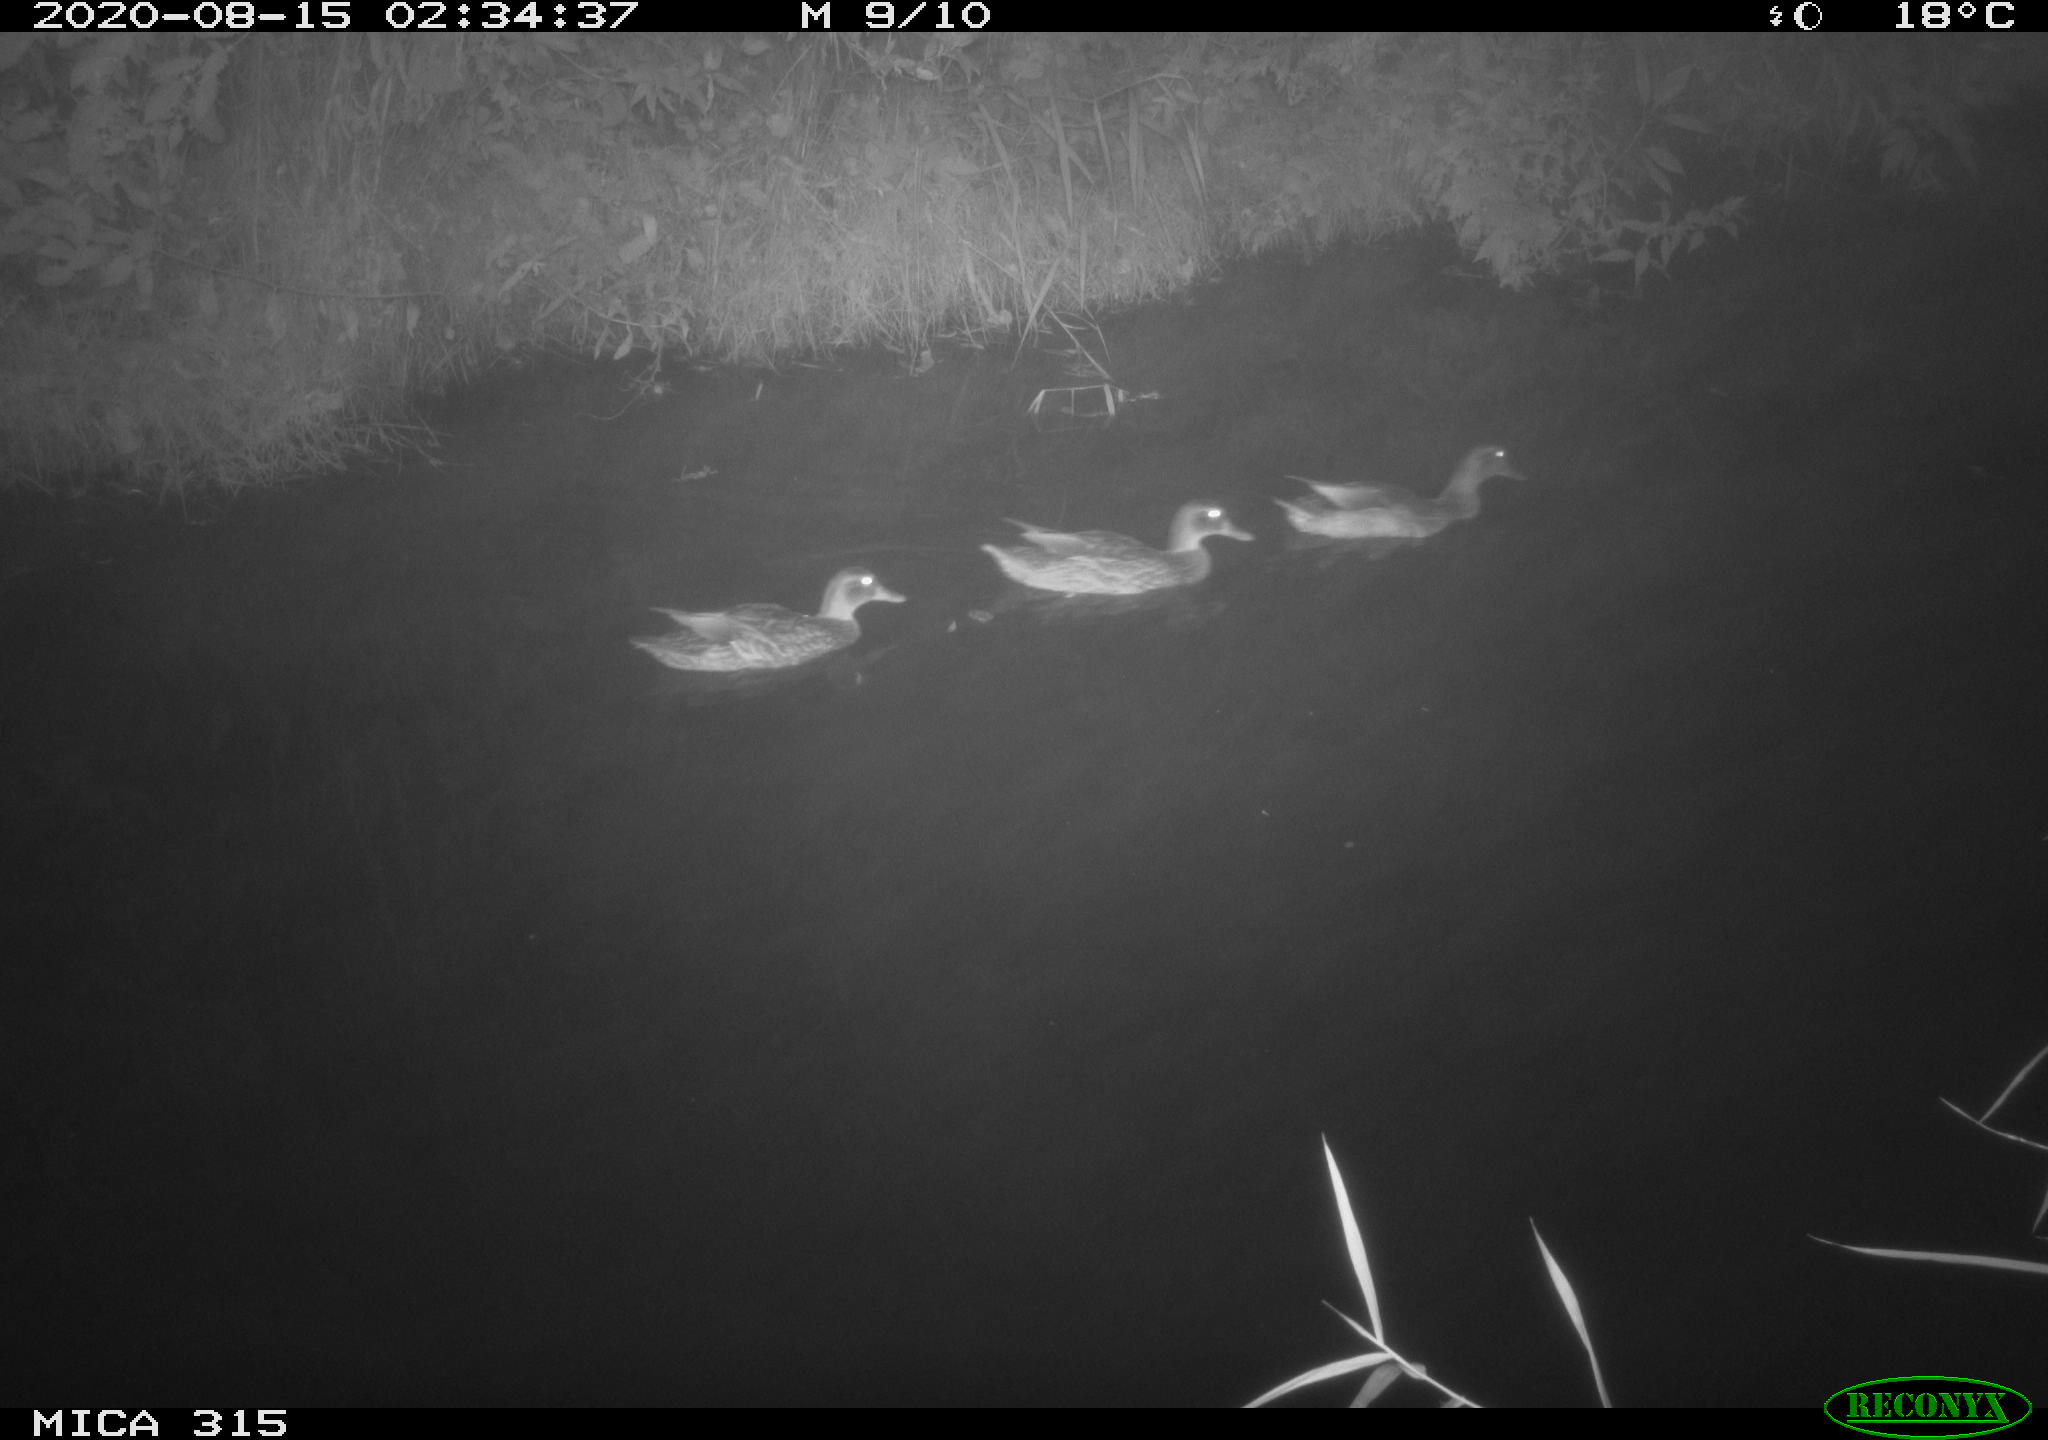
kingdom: Animalia
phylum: Chordata
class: Aves
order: Anseriformes
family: Anatidae
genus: Anas
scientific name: Anas platyrhynchos
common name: Mallard
